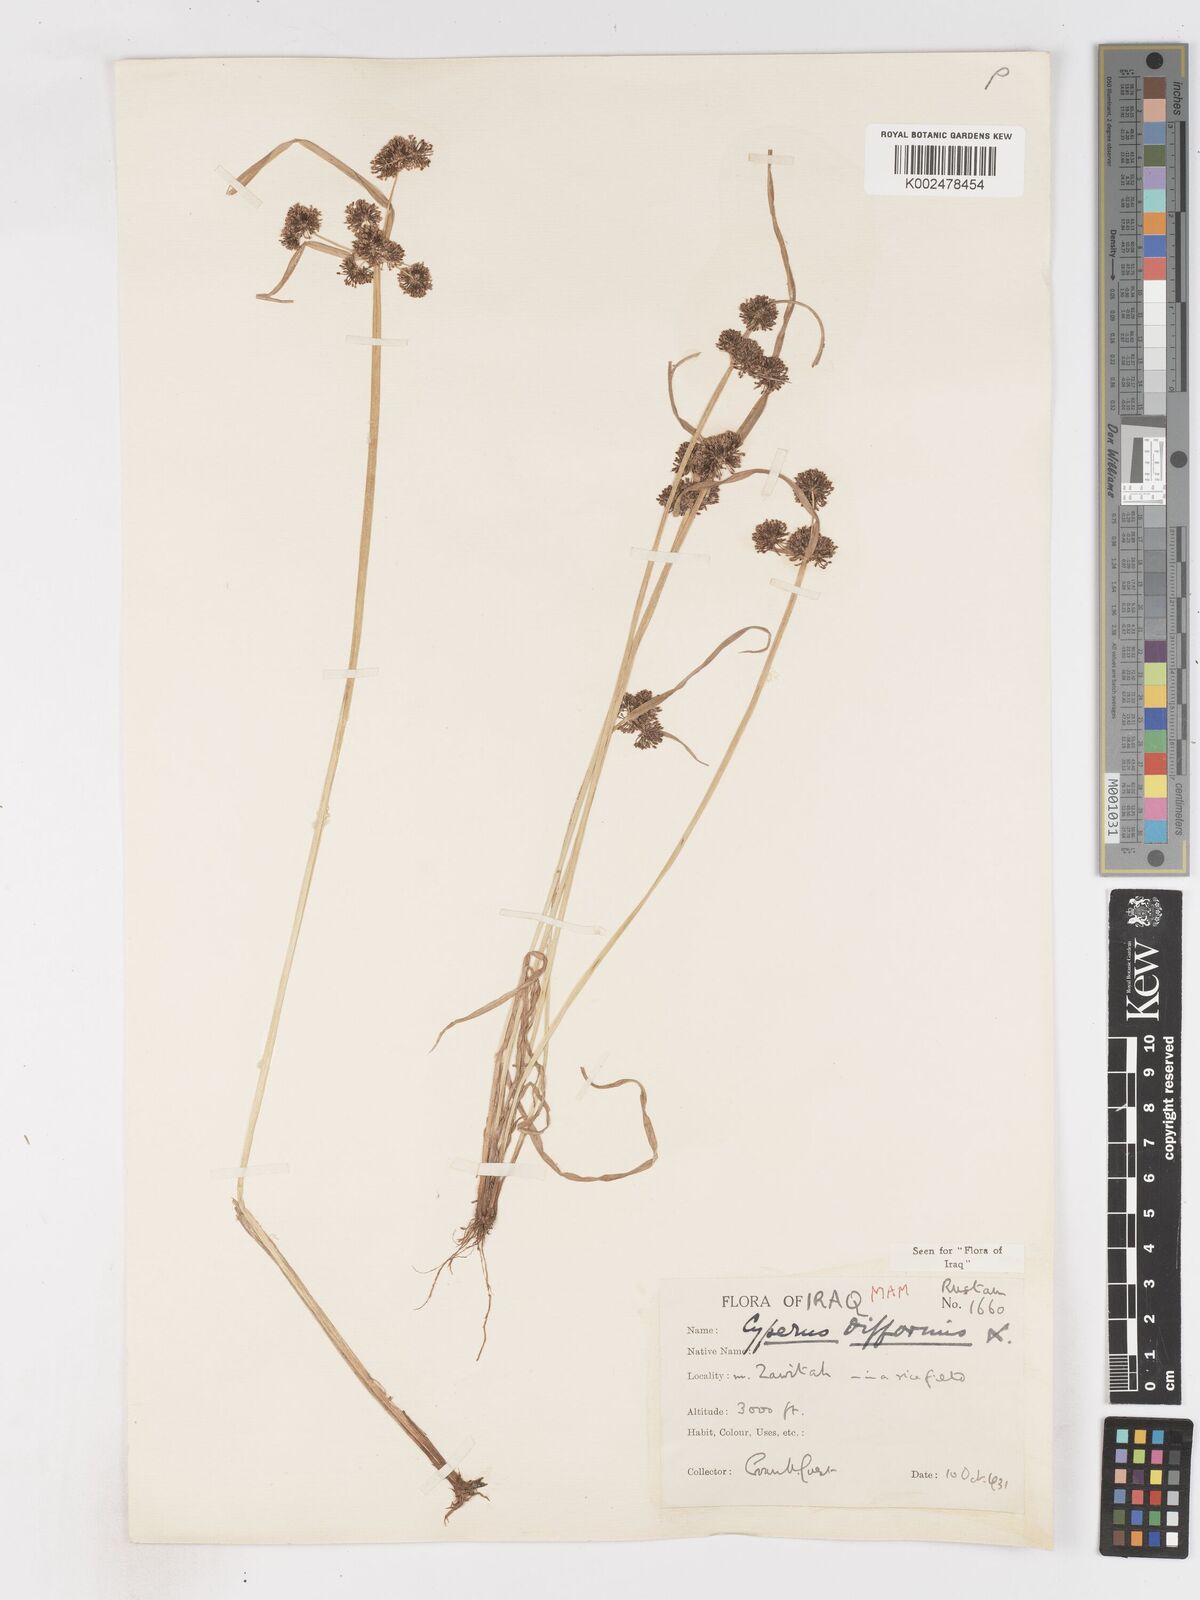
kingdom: Plantae
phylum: Tracheophyta
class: Liliopsida
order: Poales
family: Cyperaceae
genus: Cyperus
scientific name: Cyperus difformis
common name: Variable flatsedge
